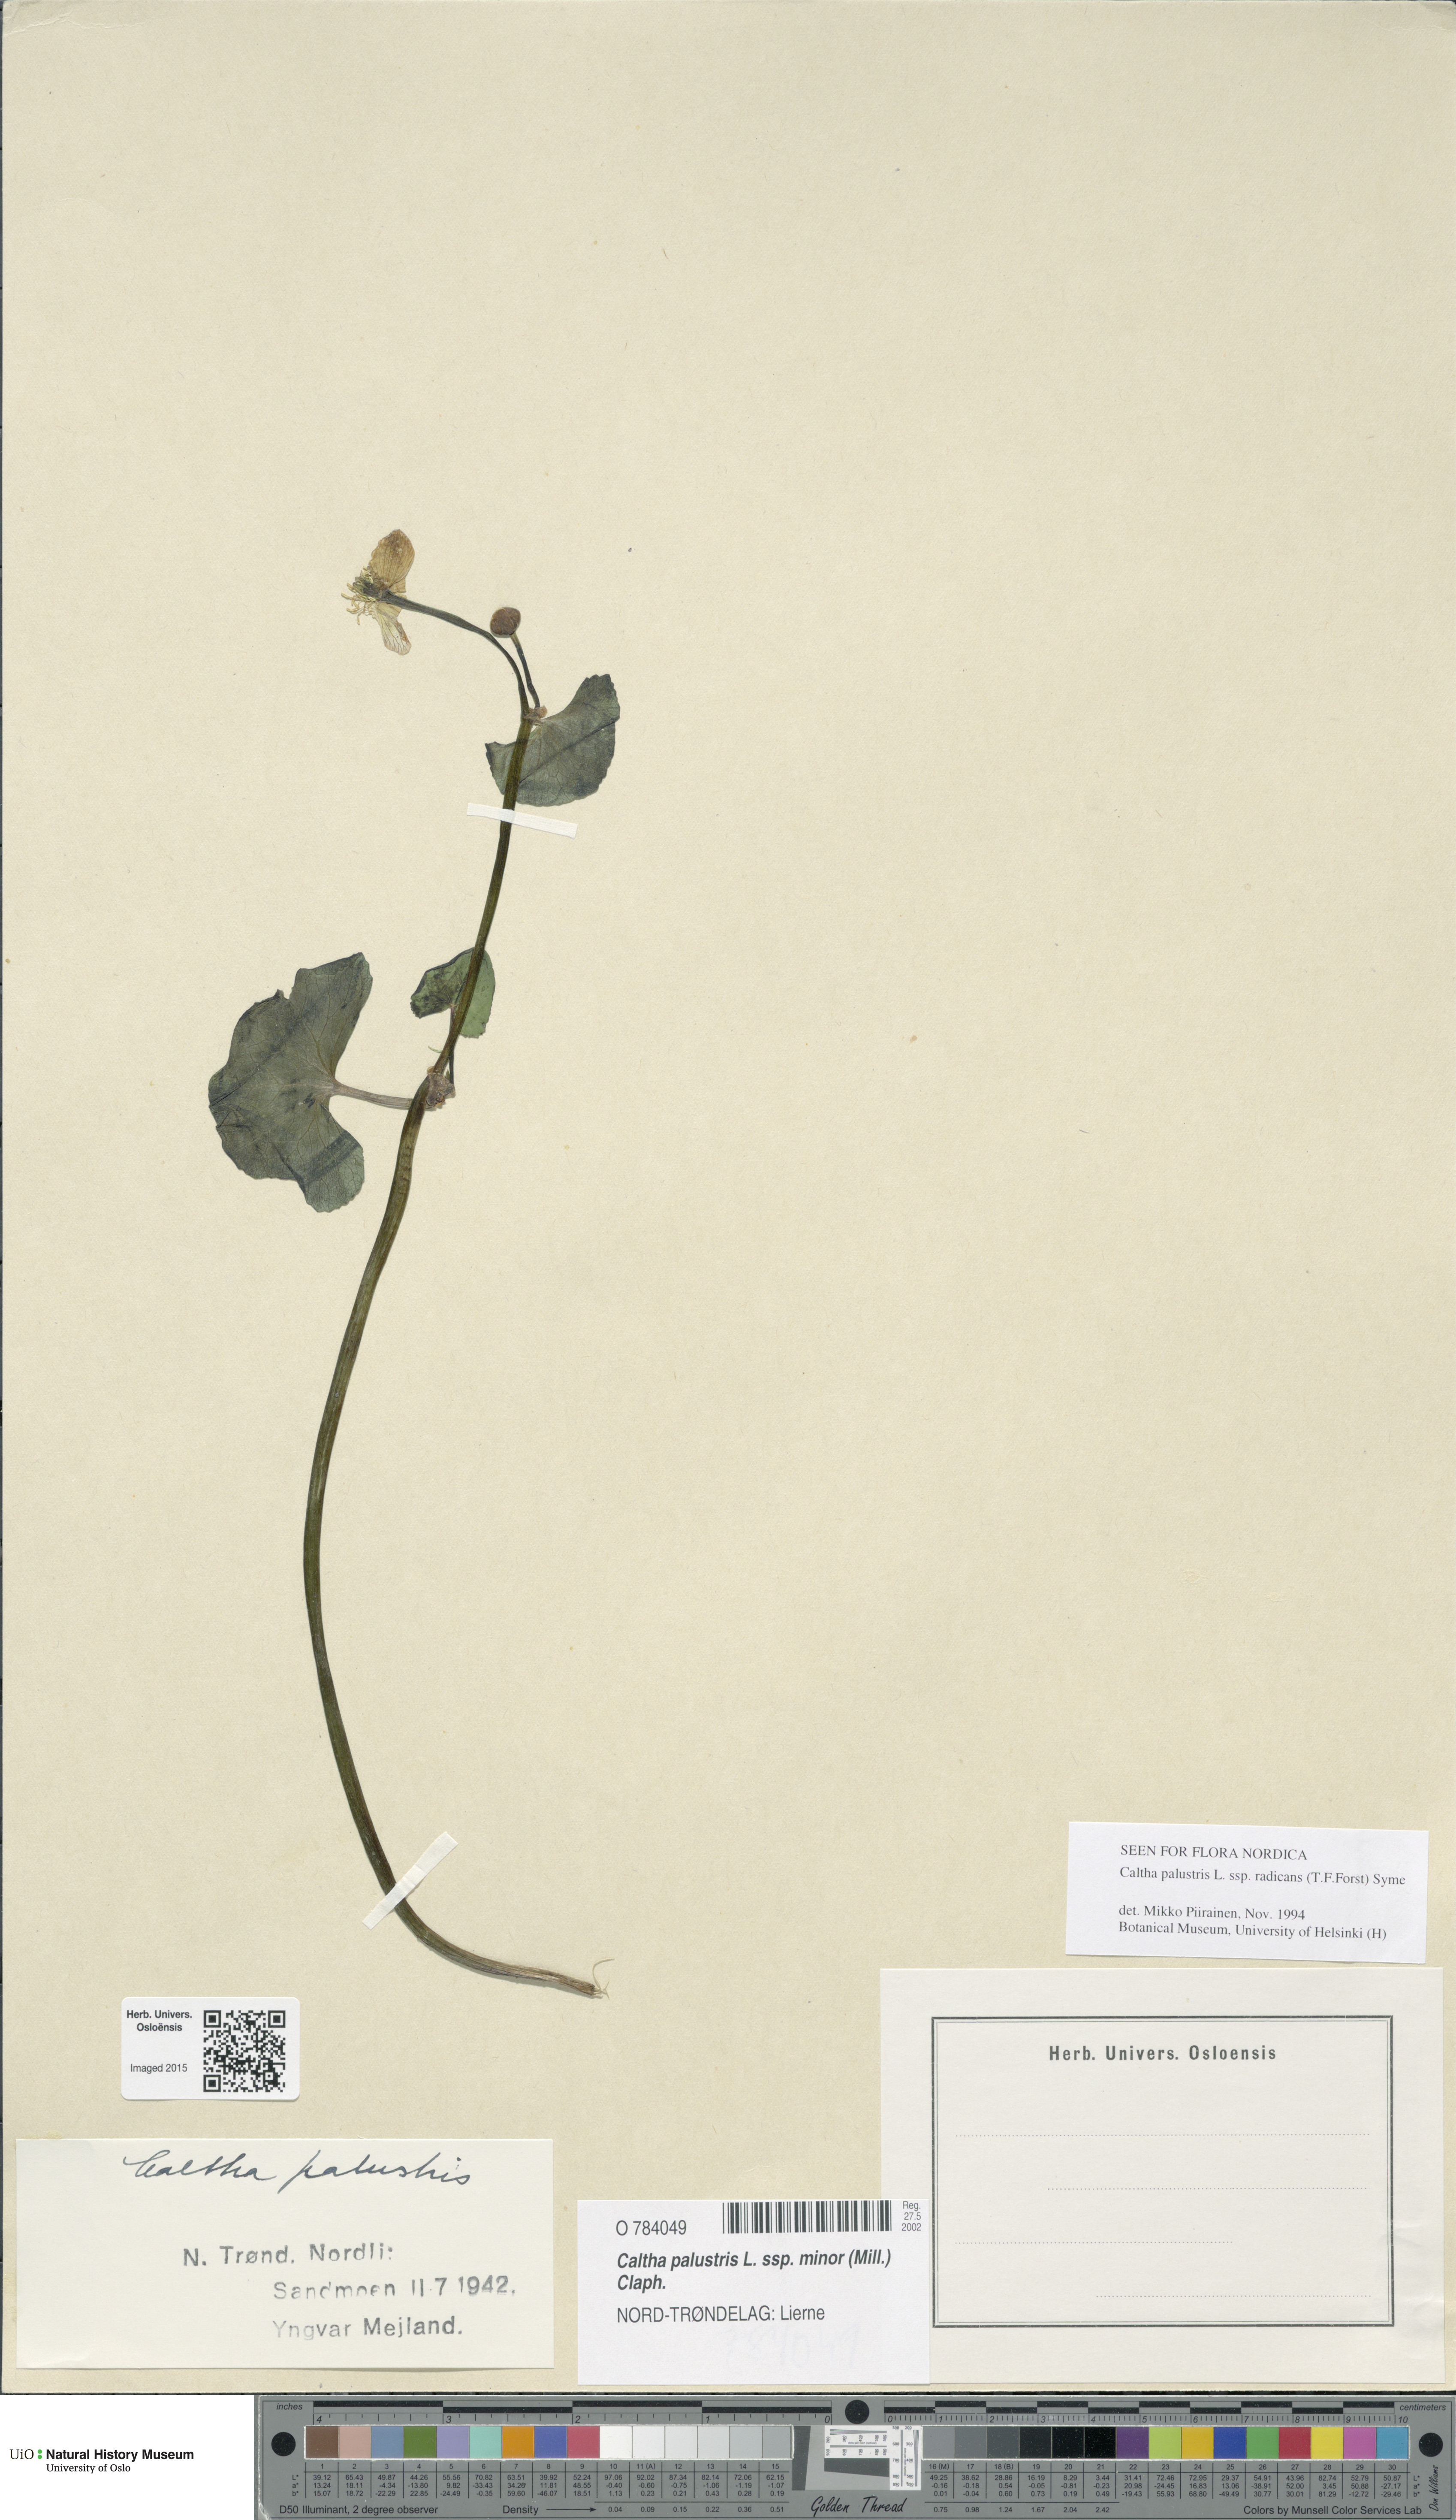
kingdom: Plantae
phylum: Tracheophyta
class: Magnoliopsida
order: Ranunculales
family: Ranunculaceae
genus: Caltha
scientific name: Caltha palustris
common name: Marsh marigold
